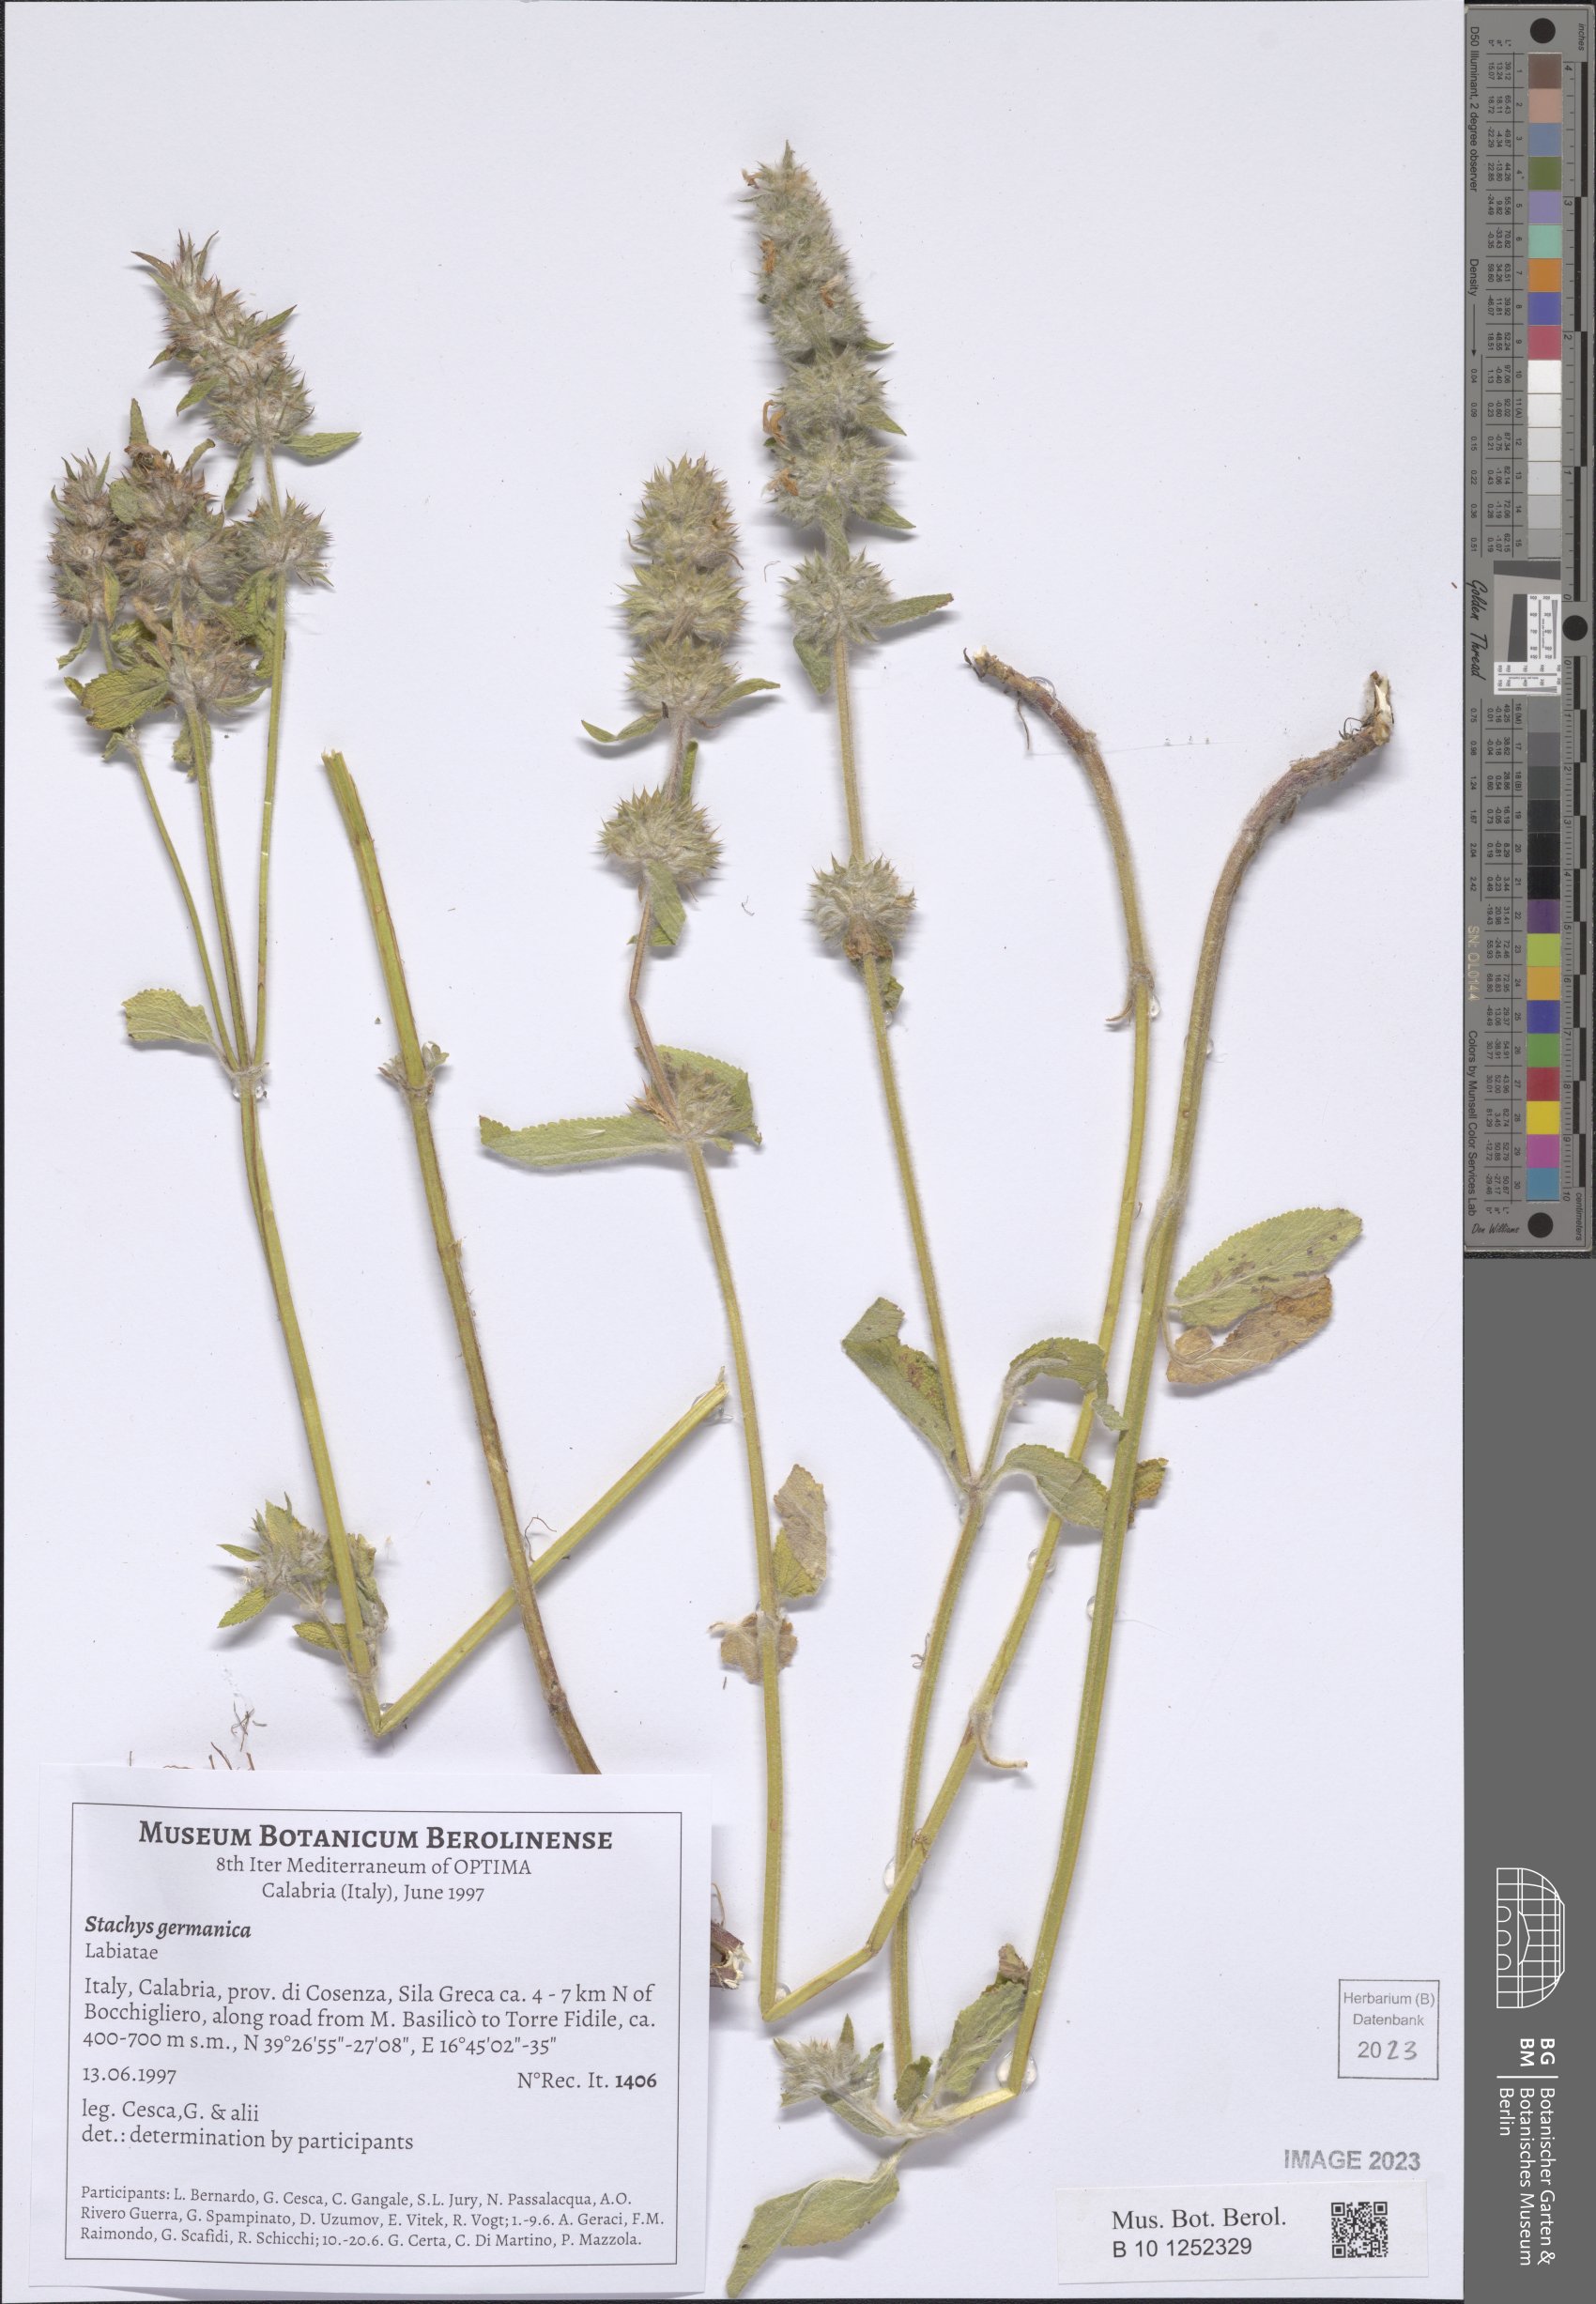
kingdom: Plantae
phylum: Tracheophyta
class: Magnoliopsida
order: Lamiales
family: Lamiaceae
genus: Stachys
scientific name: Stachys germanica
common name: Downy woundwort
